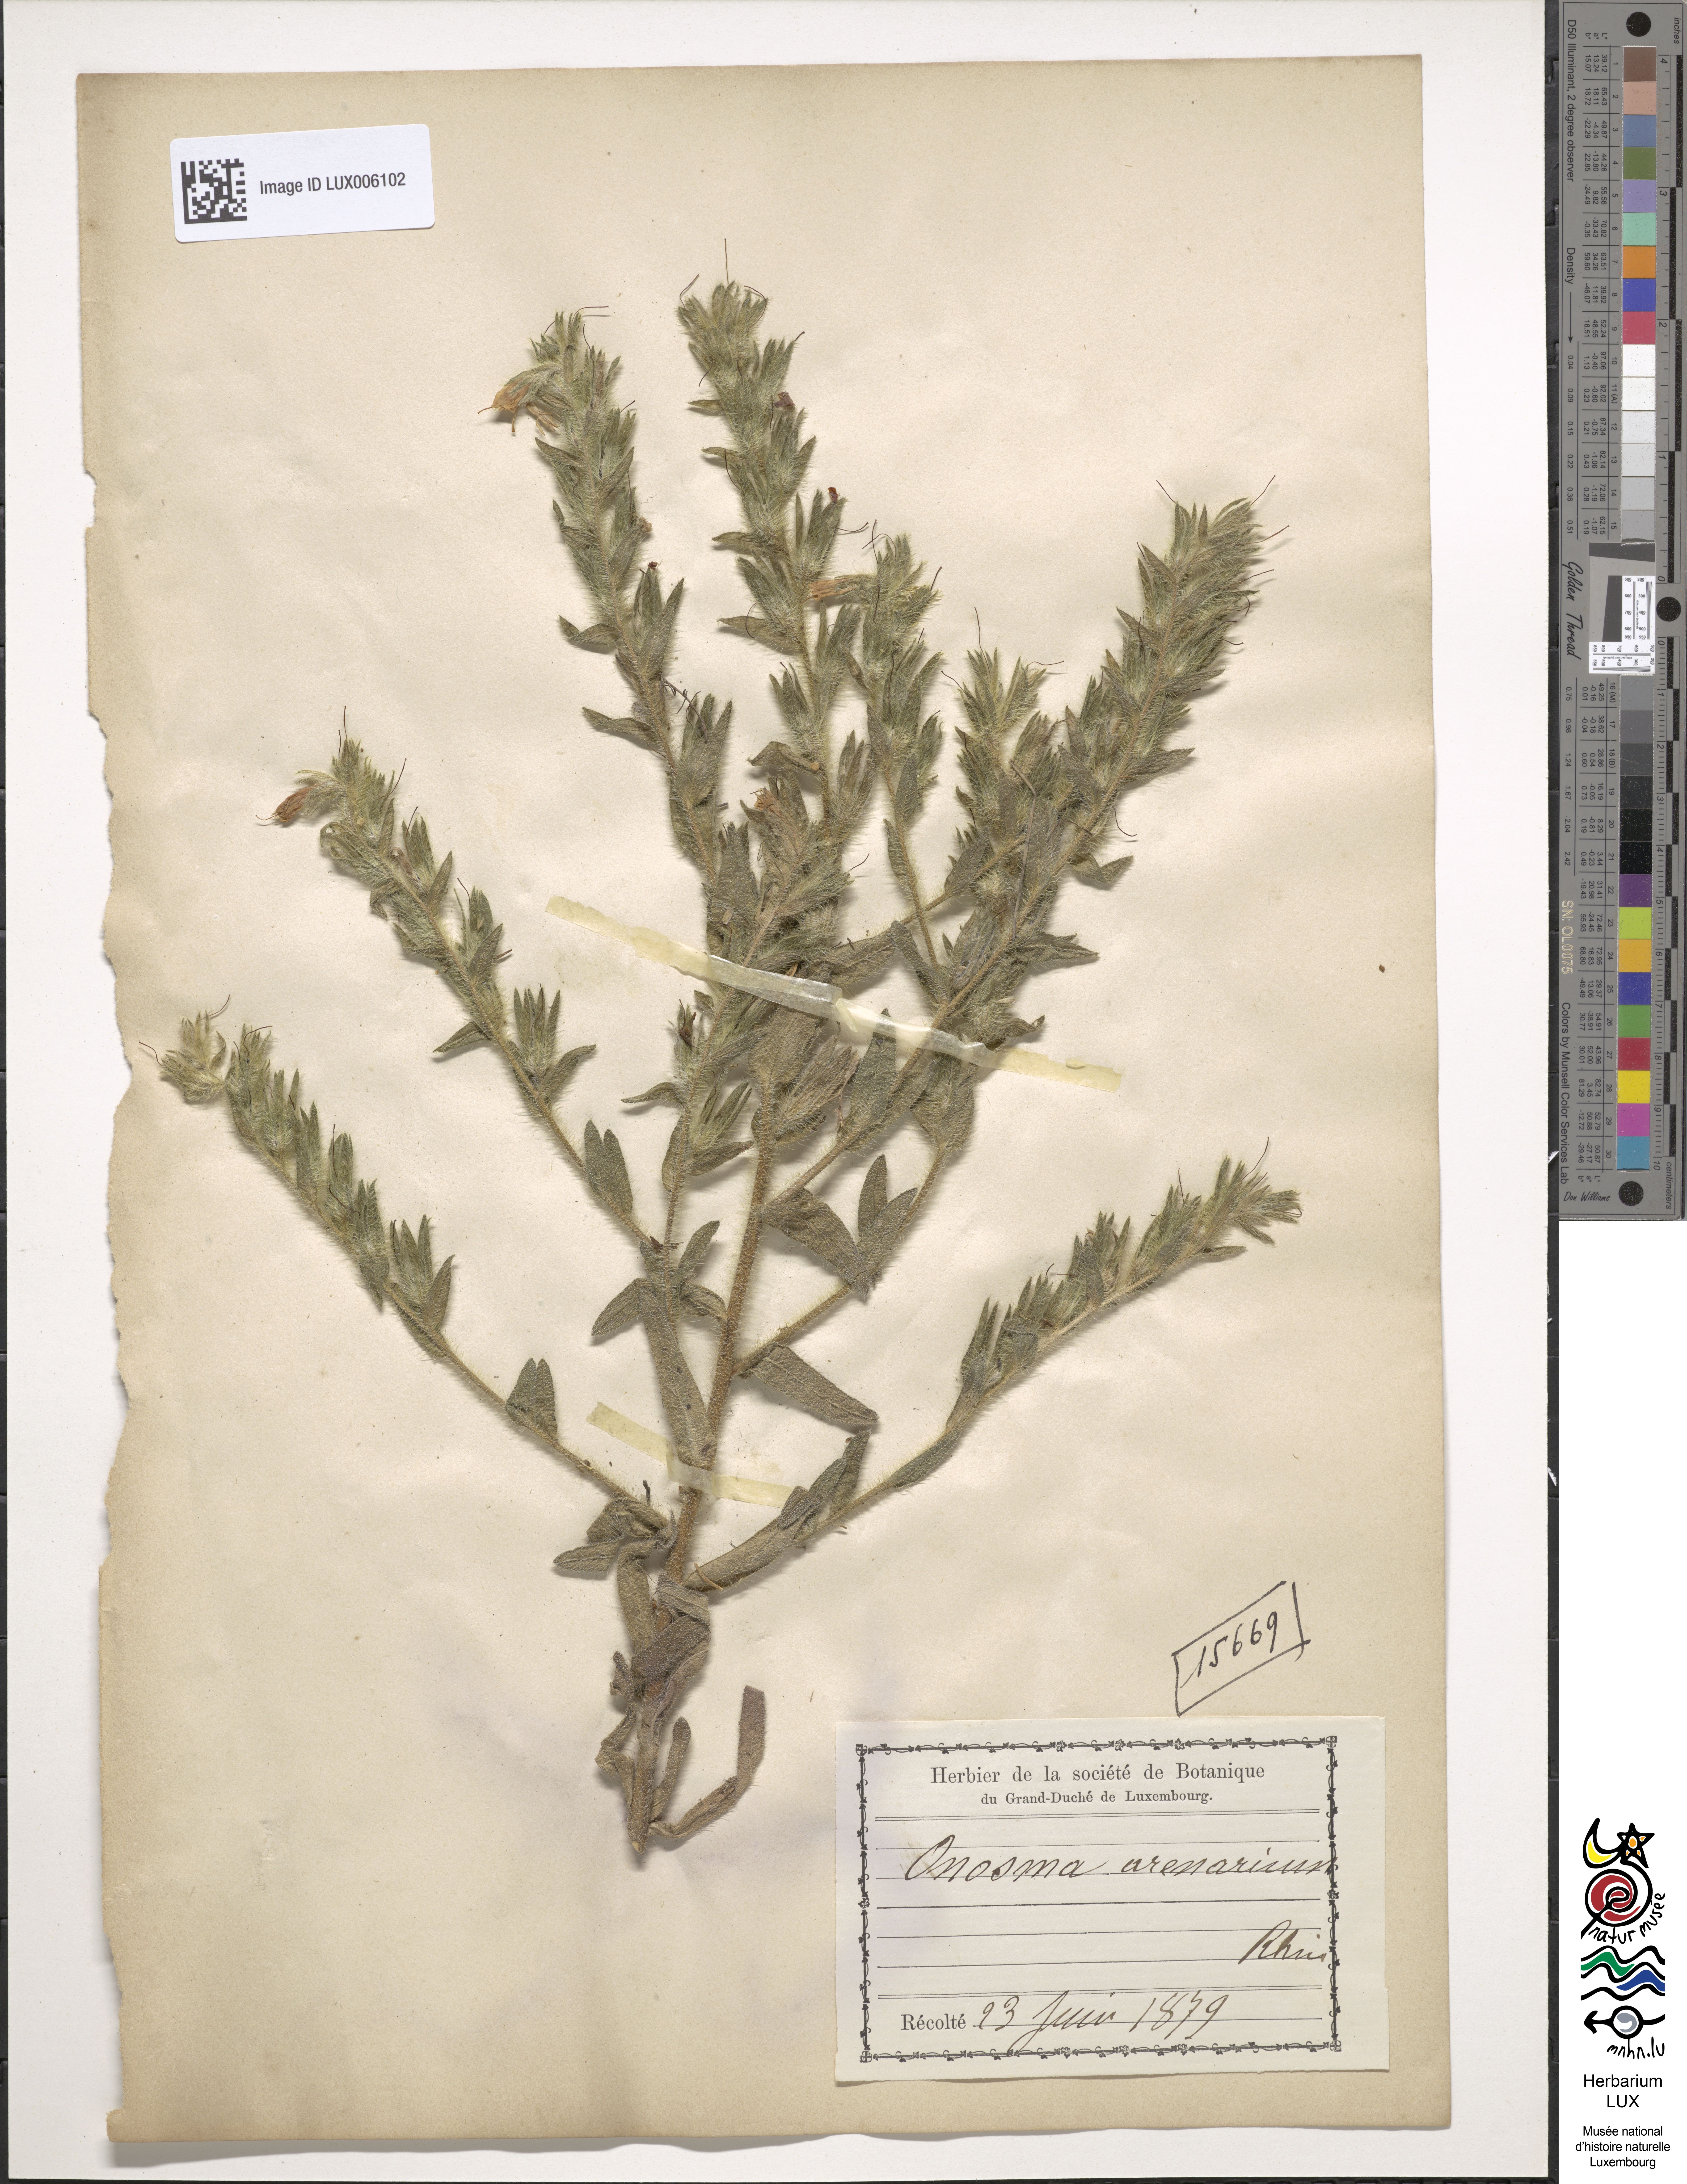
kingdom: Plantae
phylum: Tracheophyta
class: Magnoliopsida
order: Boraginales
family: Boraginaceae
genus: Onosma
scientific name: Onosma arenaria
